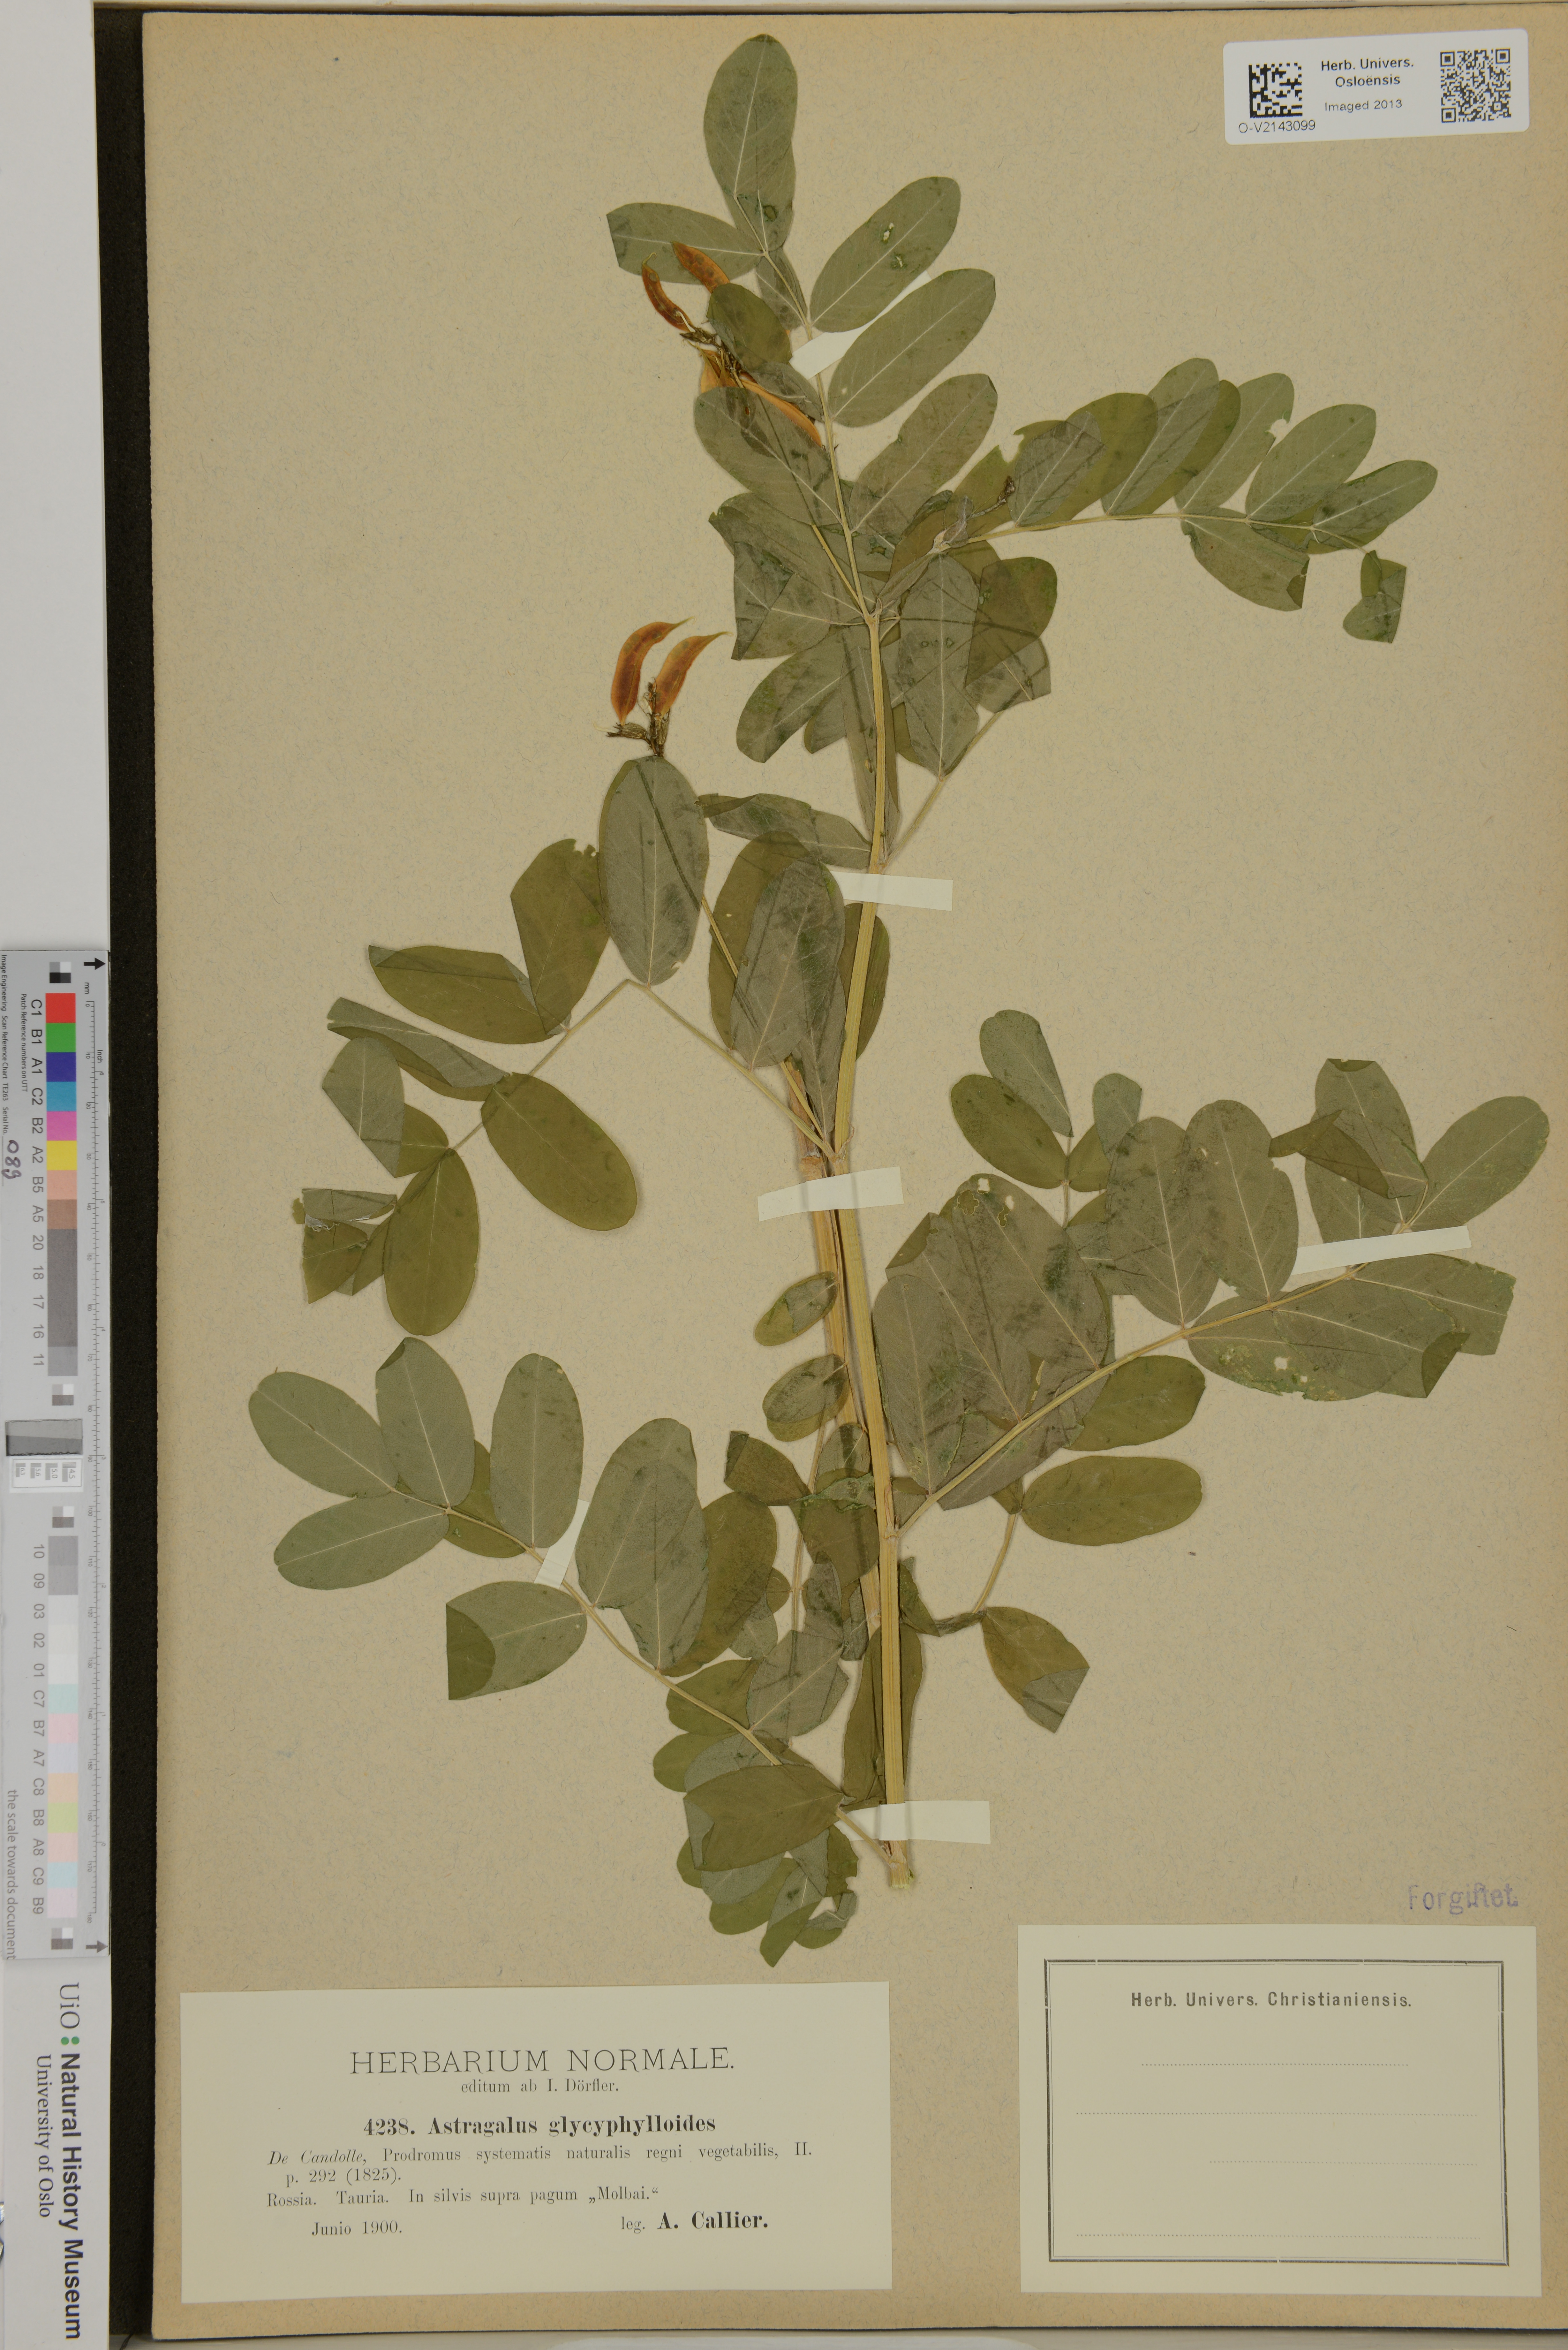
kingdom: Plantae
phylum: Tracheophyta
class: Magnoliopsida
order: Fabales
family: Fabaceae
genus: Astragalus
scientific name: Astragalus glycyphylloides
